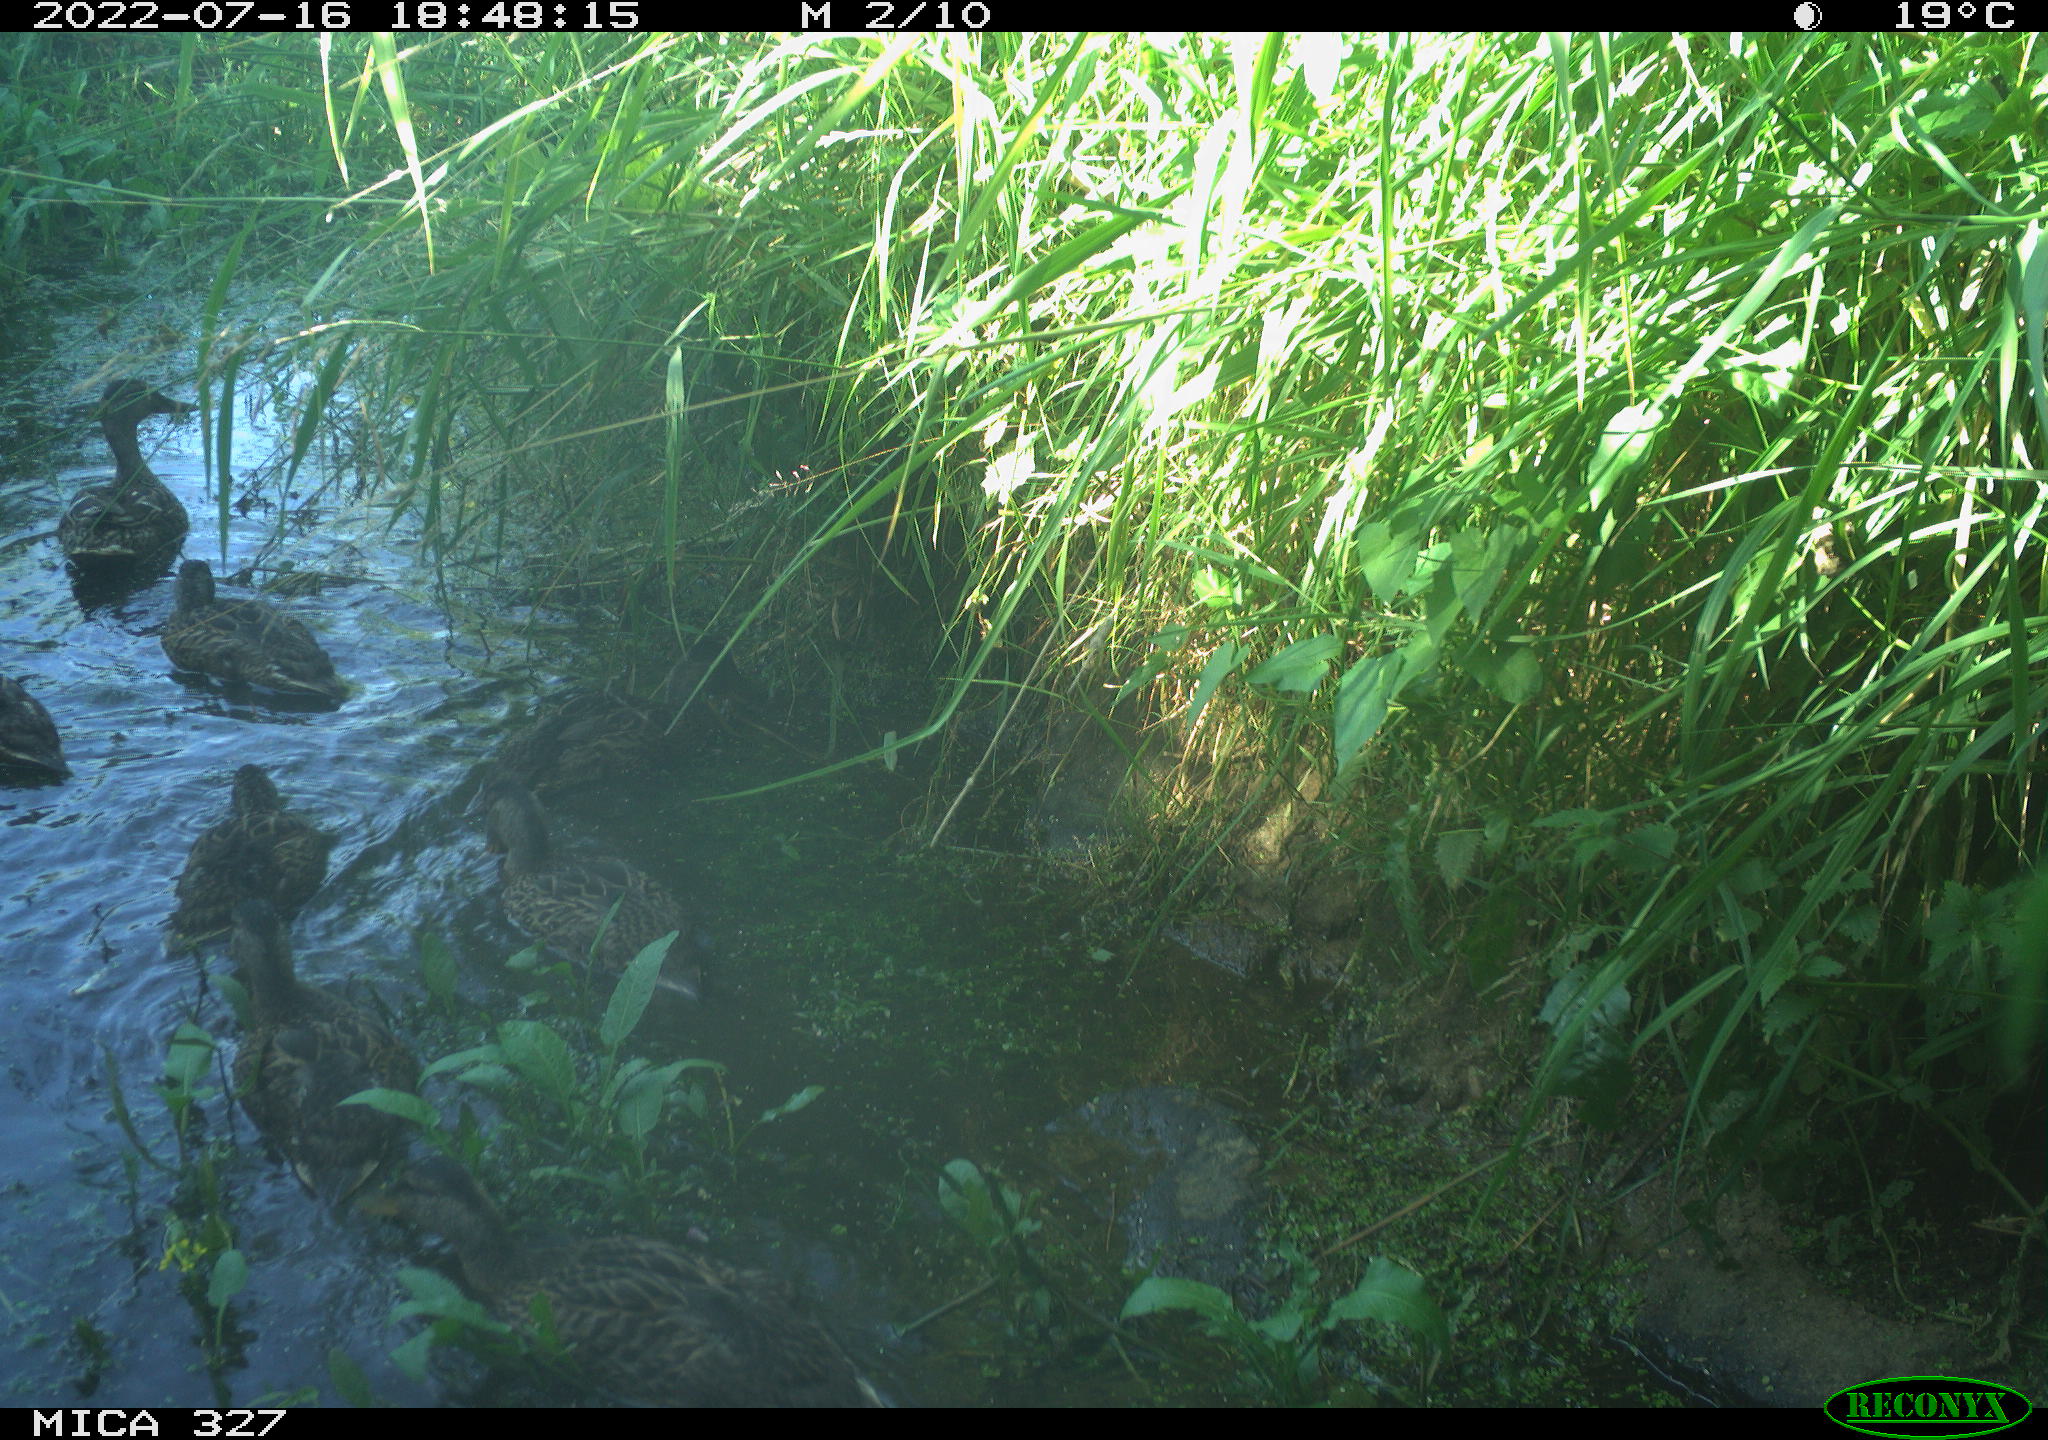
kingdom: Animalia
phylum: Chordata
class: Aves
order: Anseriformes
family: Anatidae
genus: Anas
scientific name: Anas
